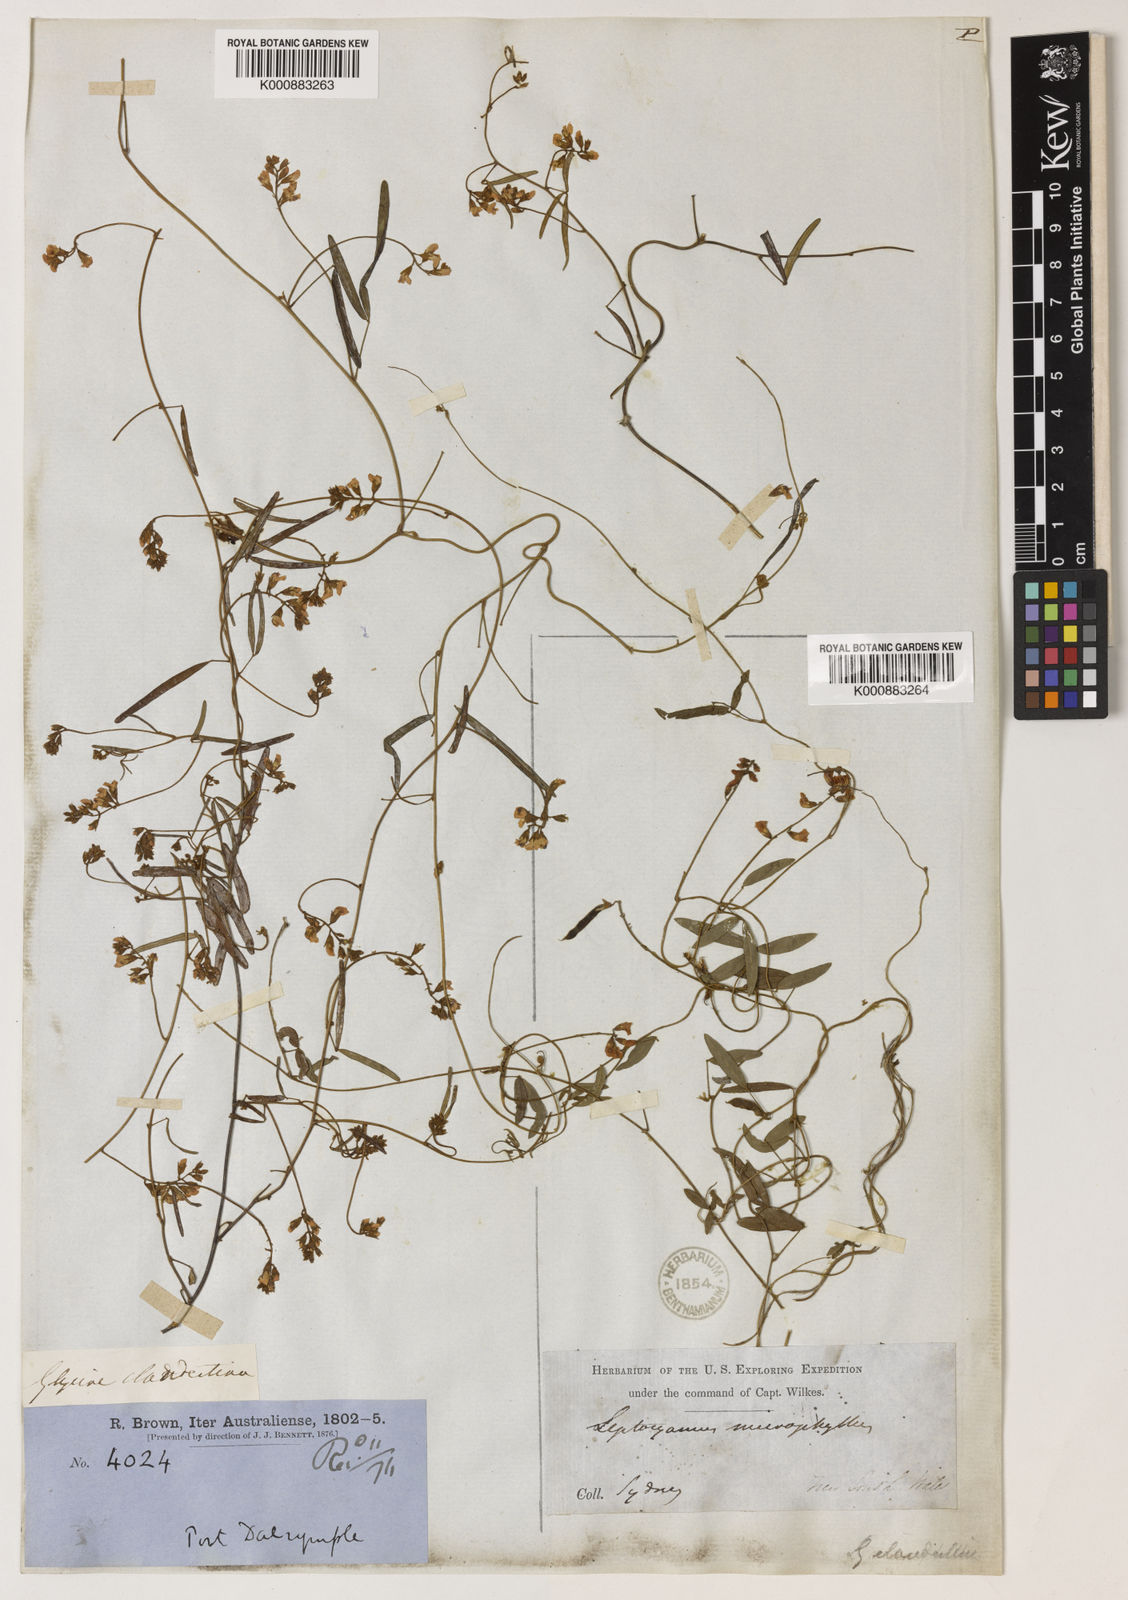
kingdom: Plantae
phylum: Tracheophyta
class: Magnoliopsida
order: Fabales
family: Fabaceae
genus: Glycine
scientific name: Glycine clandestina
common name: Twining glycine
